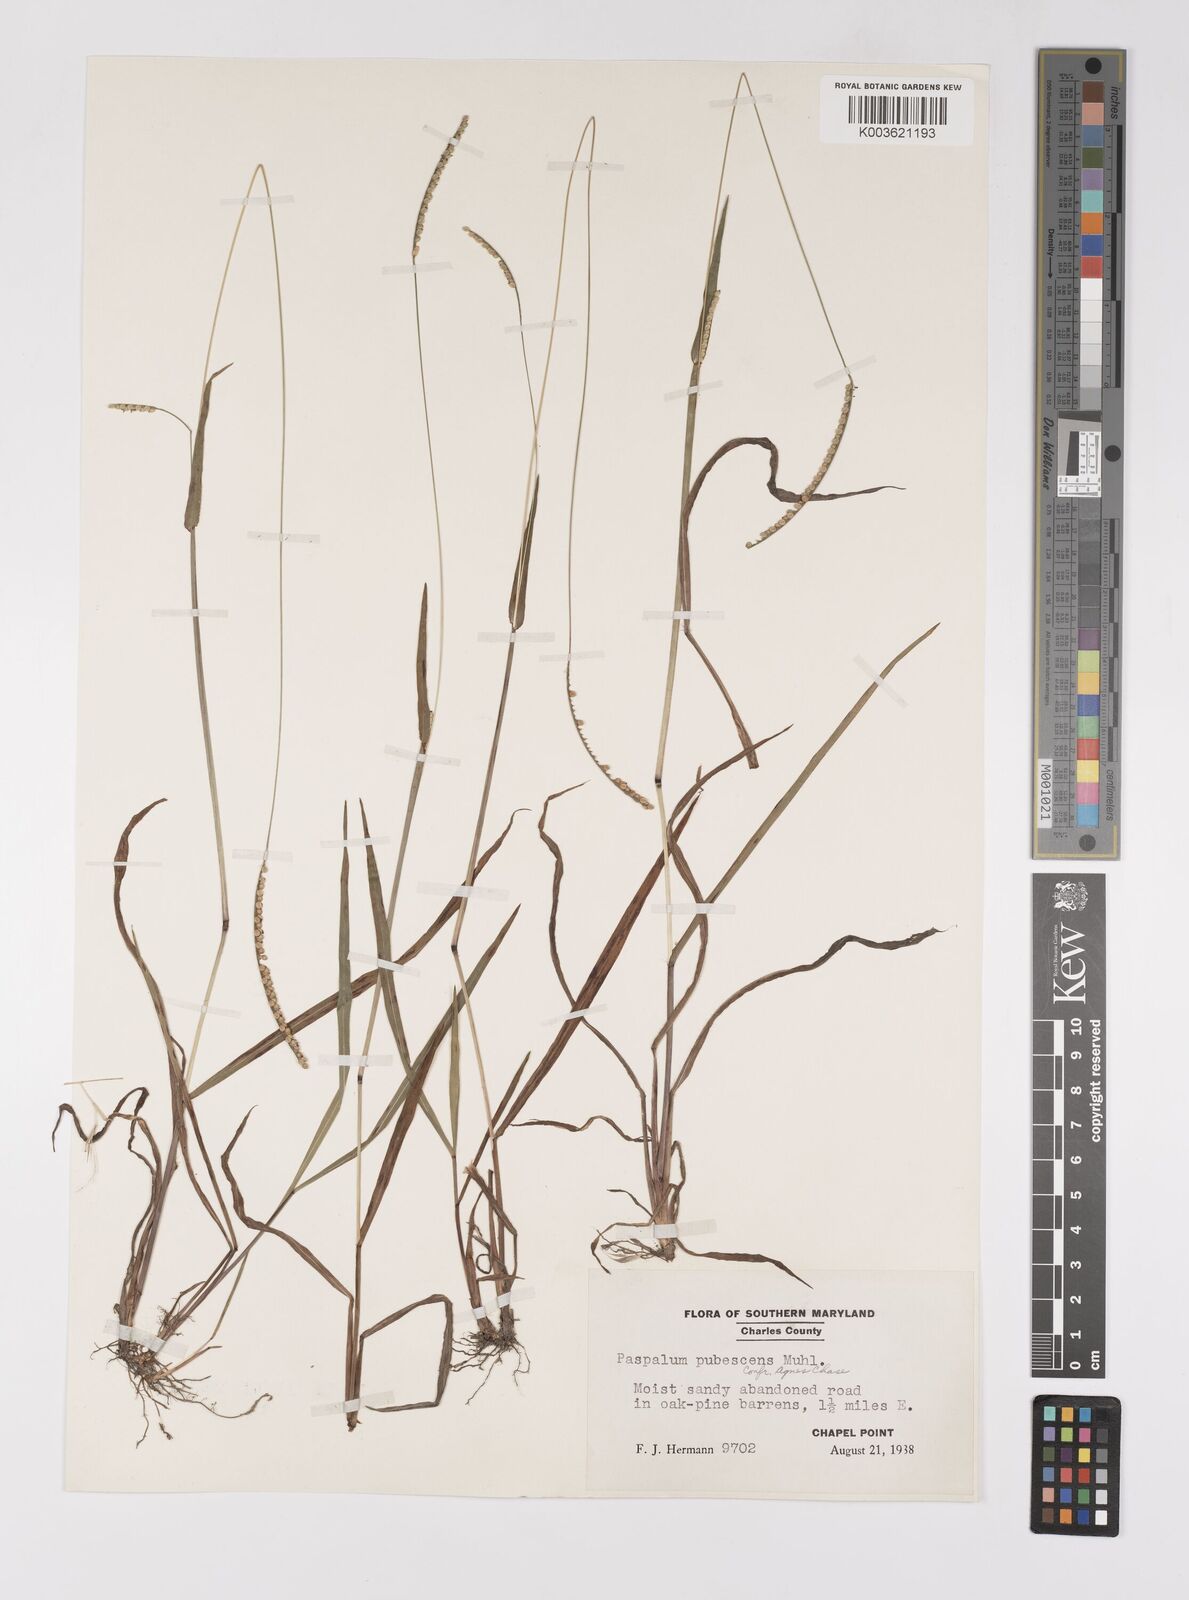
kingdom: Plantae
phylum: Tracheophyta
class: Liliopsida
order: Poales
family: Poaceae
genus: Paspalum
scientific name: Paspalum setaceum
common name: Slender paspalum
